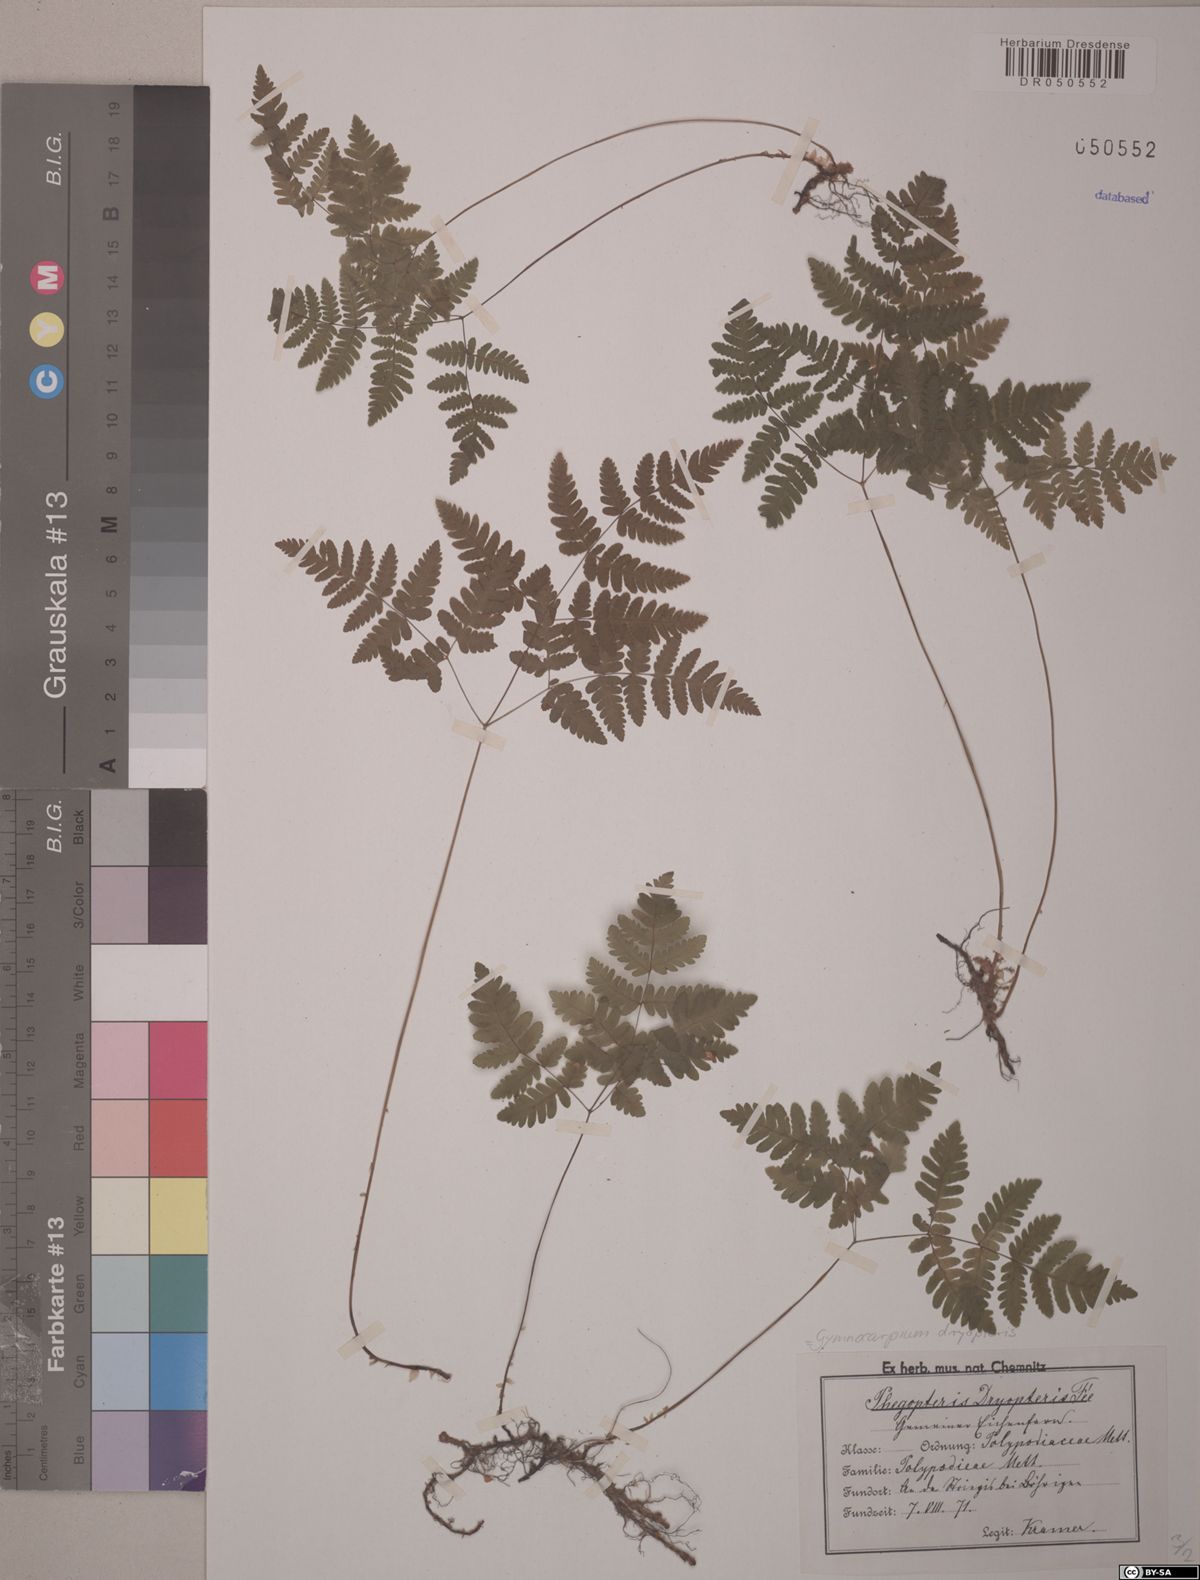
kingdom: Plantae
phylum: Tracheophyta
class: Polypodiopsida
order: Polypodiales
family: Cystopteridaceae
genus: Gymnocarpium
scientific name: Gymnocarpium dryopteris
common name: Oak fern
